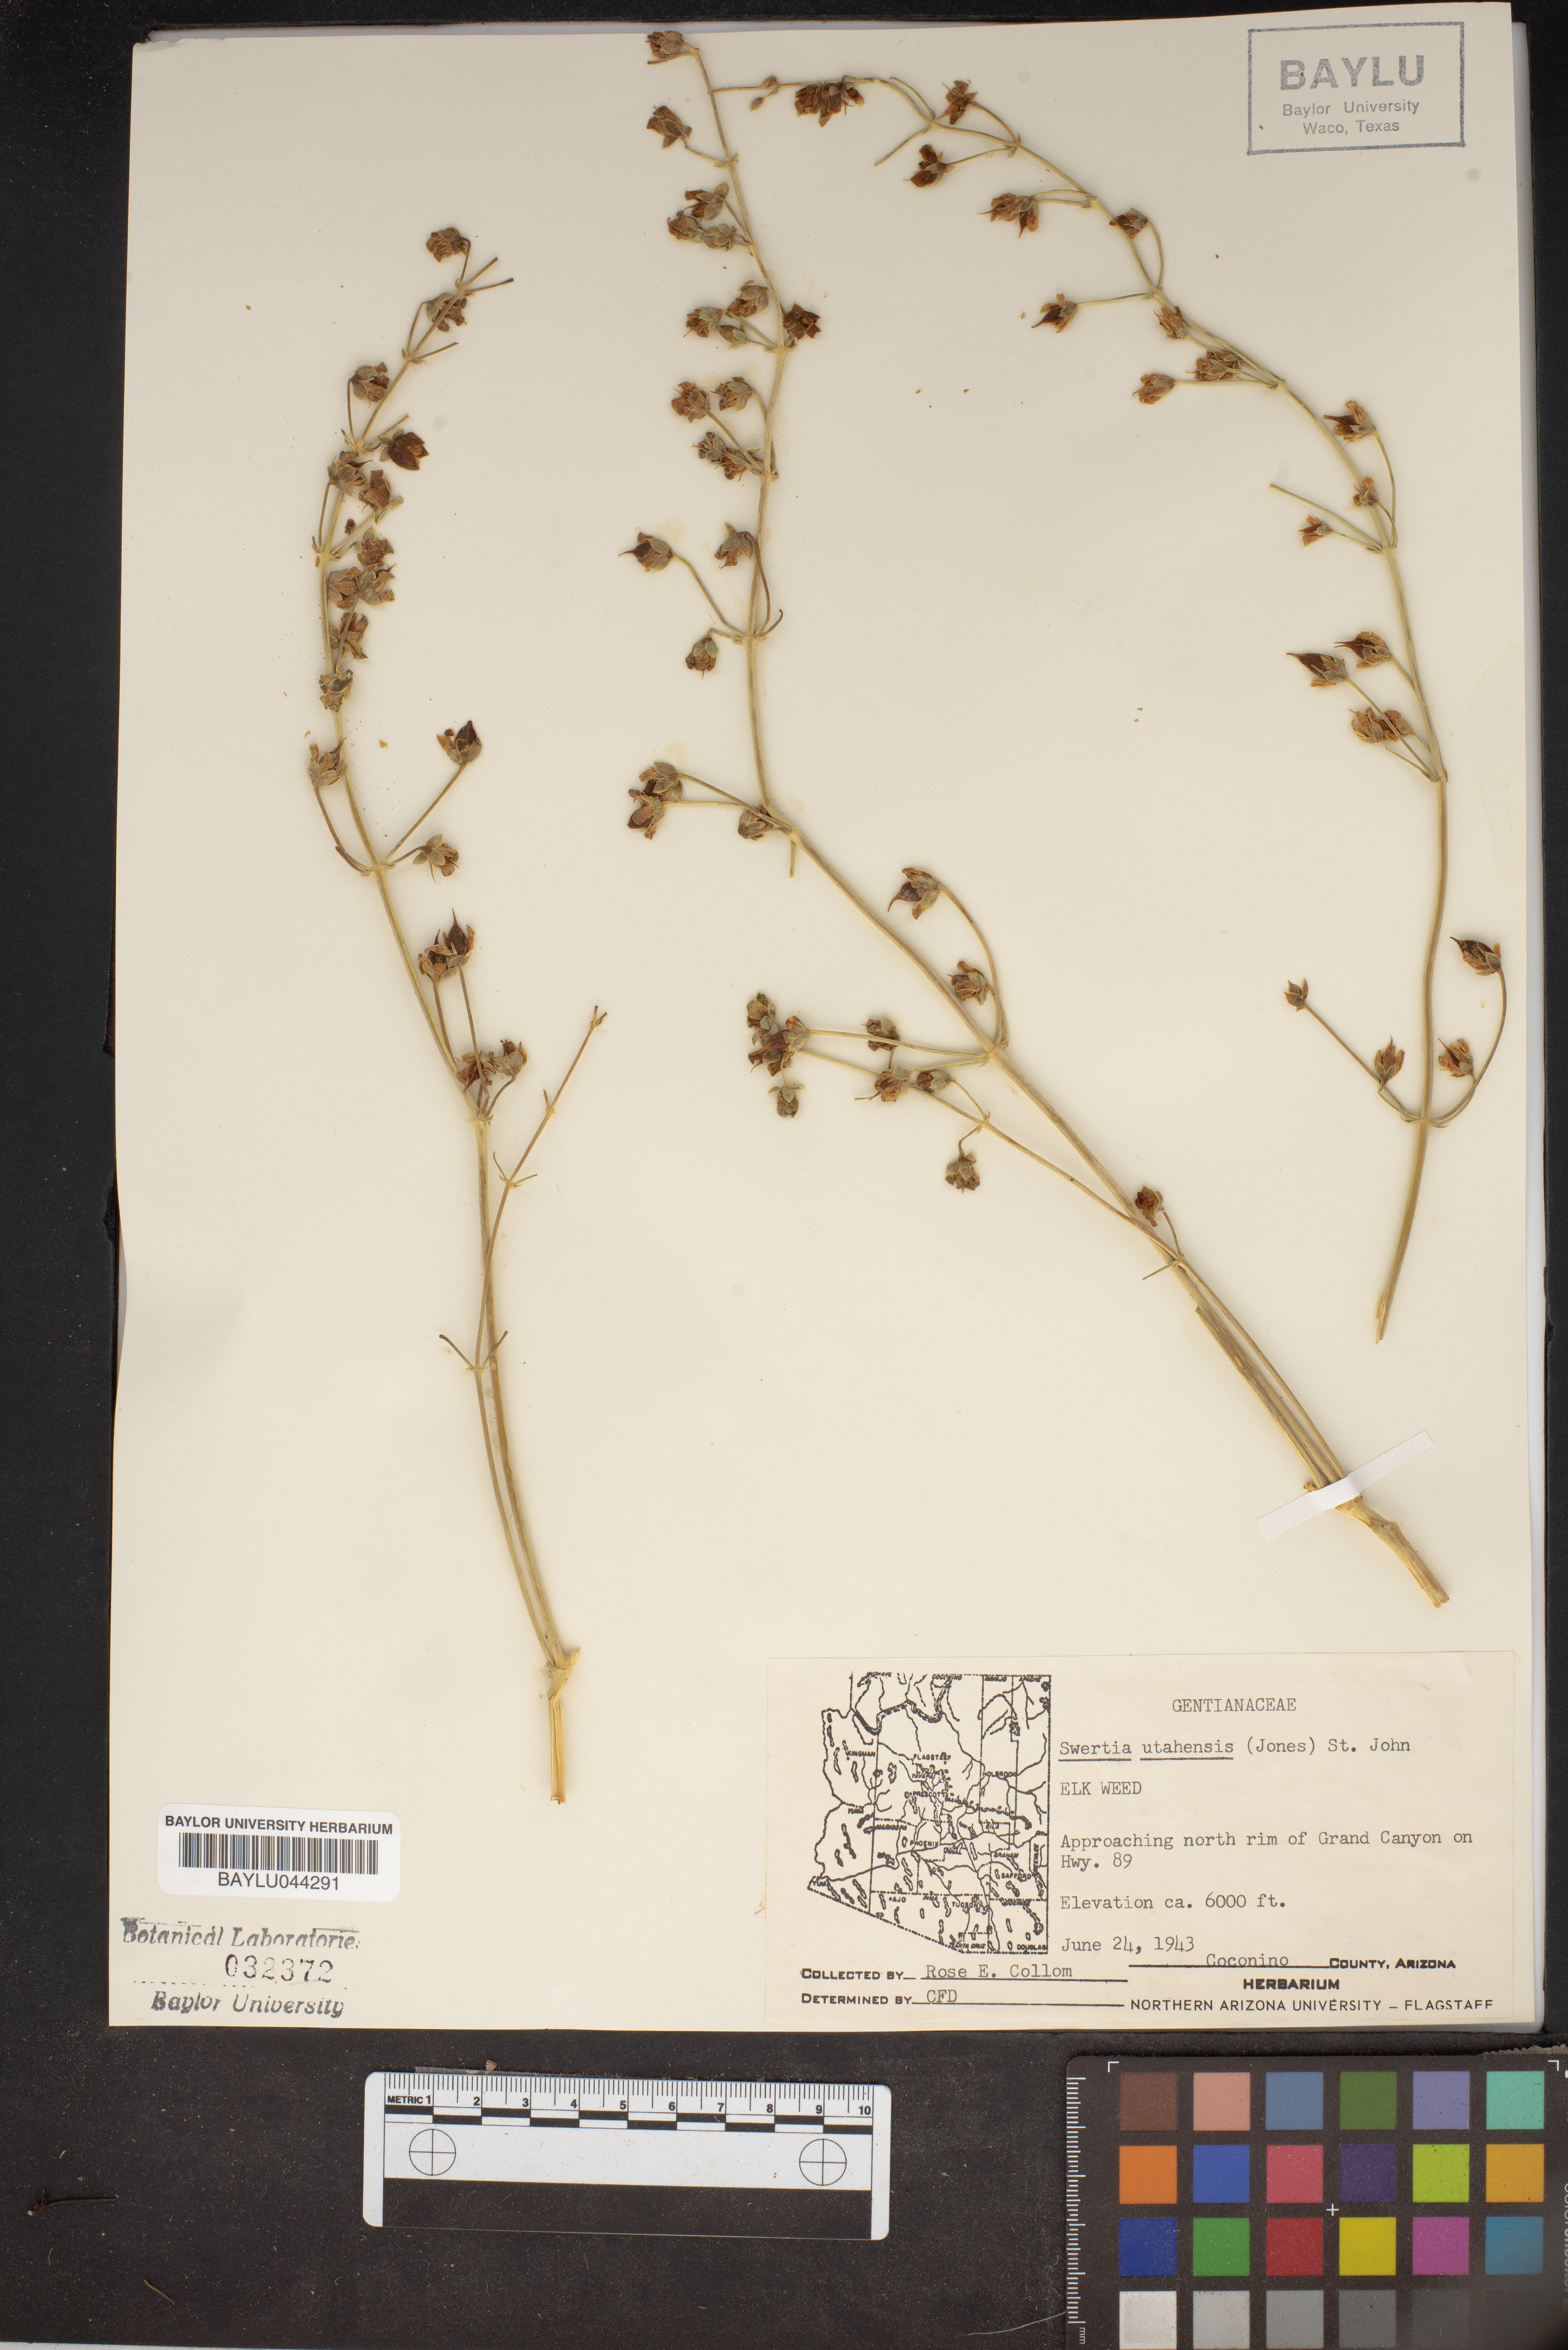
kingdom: Plantae
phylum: Tracheophyta
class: Magnoliopsida
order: Gentianales
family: Gentianaceae
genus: Frasera
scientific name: Frasera paniculata
